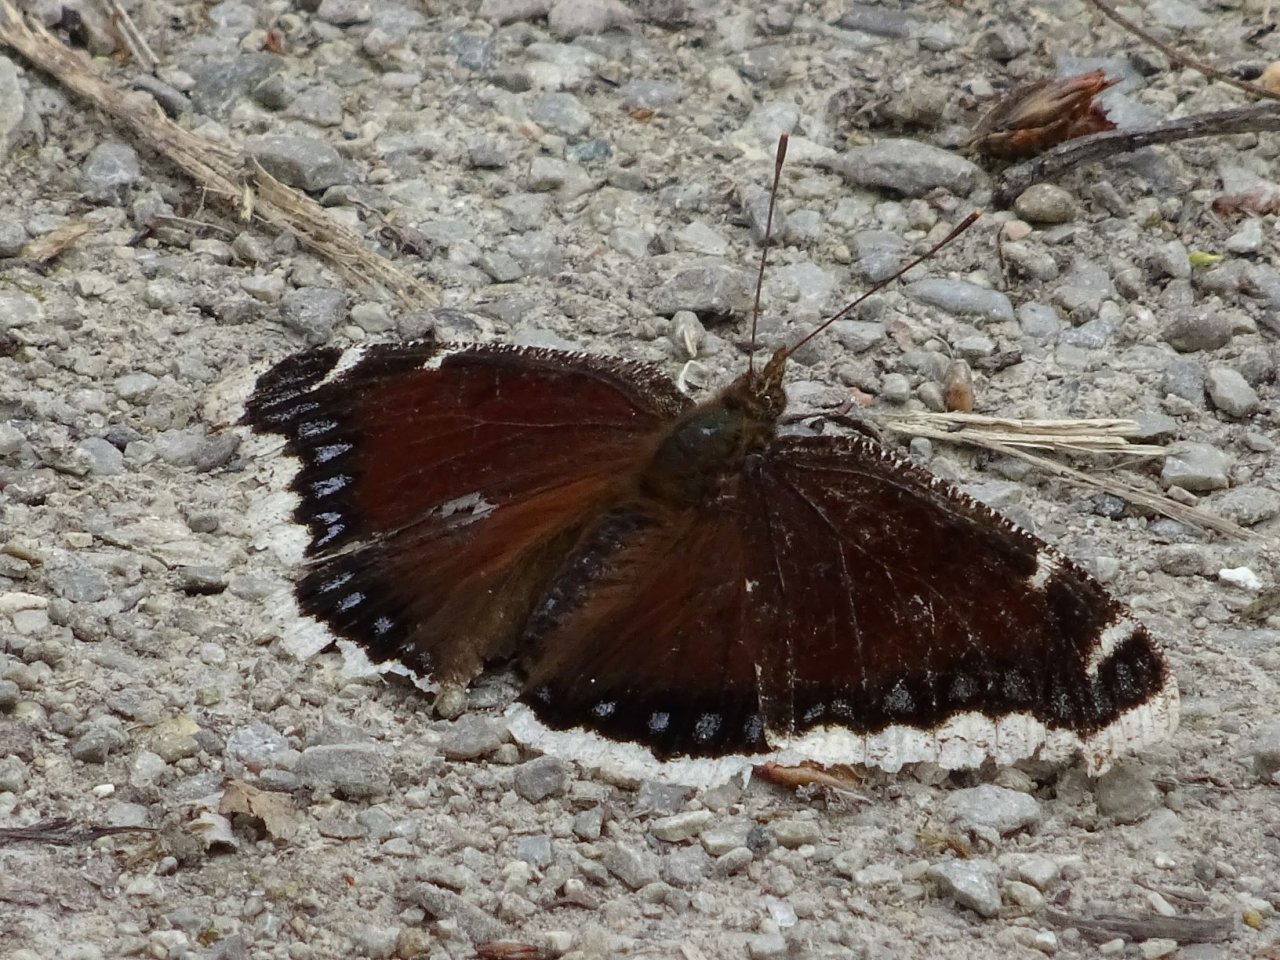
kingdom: Animalia
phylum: Arthropoda
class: Insecta
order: Lepidoptera
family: Nymphalidae
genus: Nymphalis
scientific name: Nymphalis antiopa
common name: Mourning Cloak
